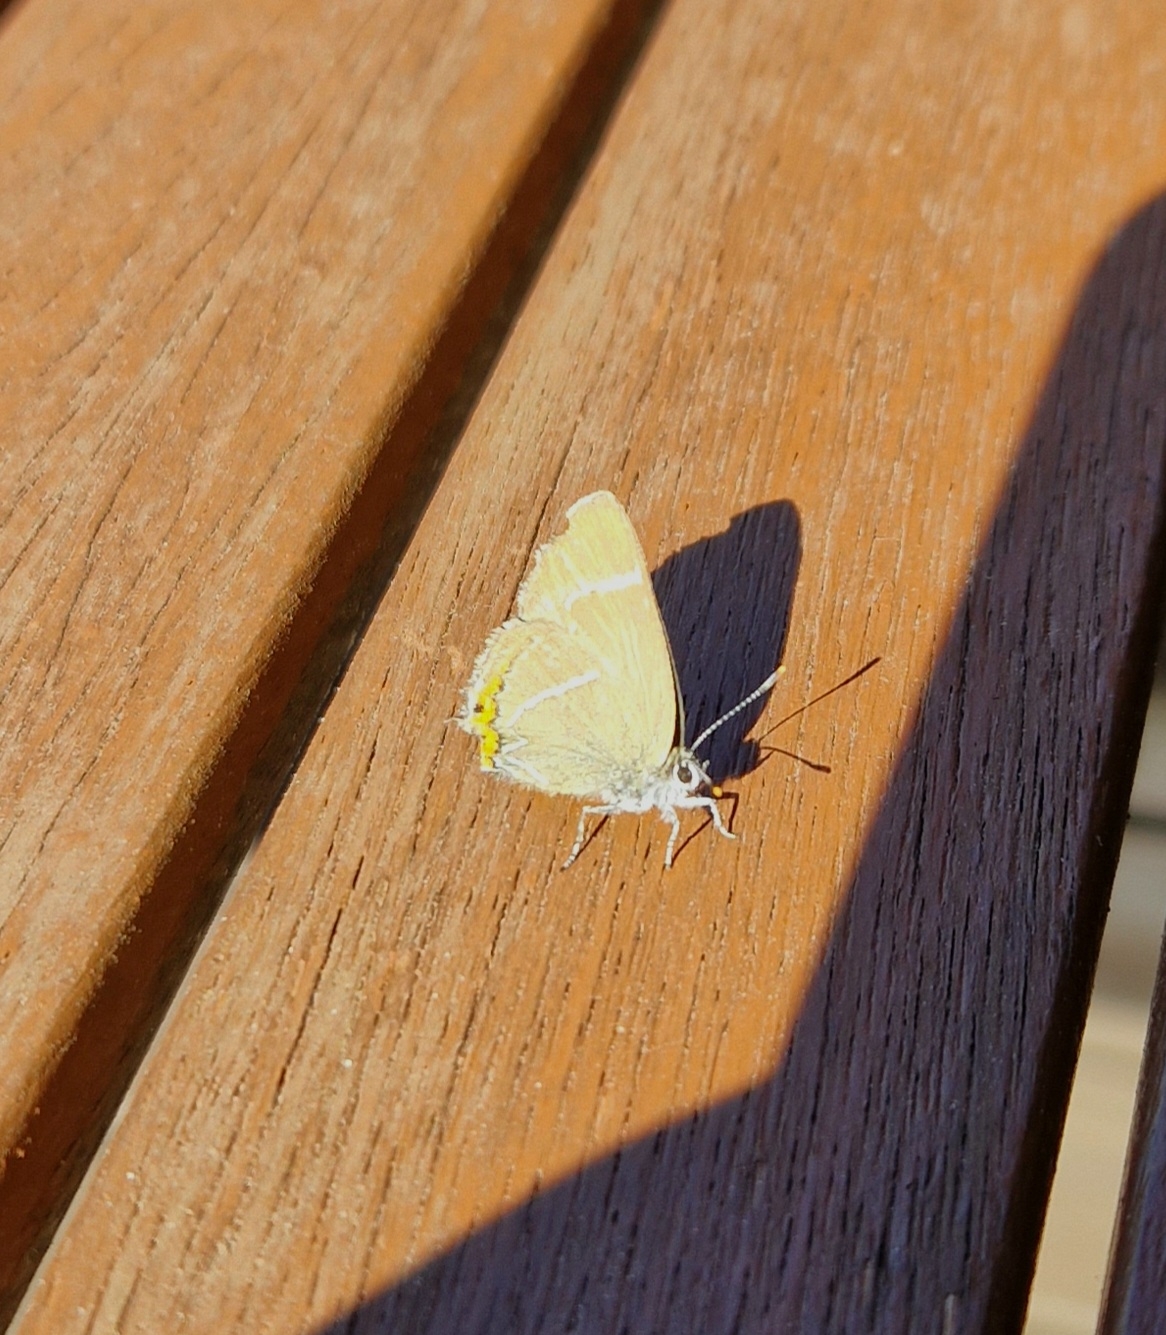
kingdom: Animalia
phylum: Arthropoda
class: Insecta
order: Lepidoptera
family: Lycaenidae
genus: Satyrium
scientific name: Satyrium w-album
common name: Det hvide W
